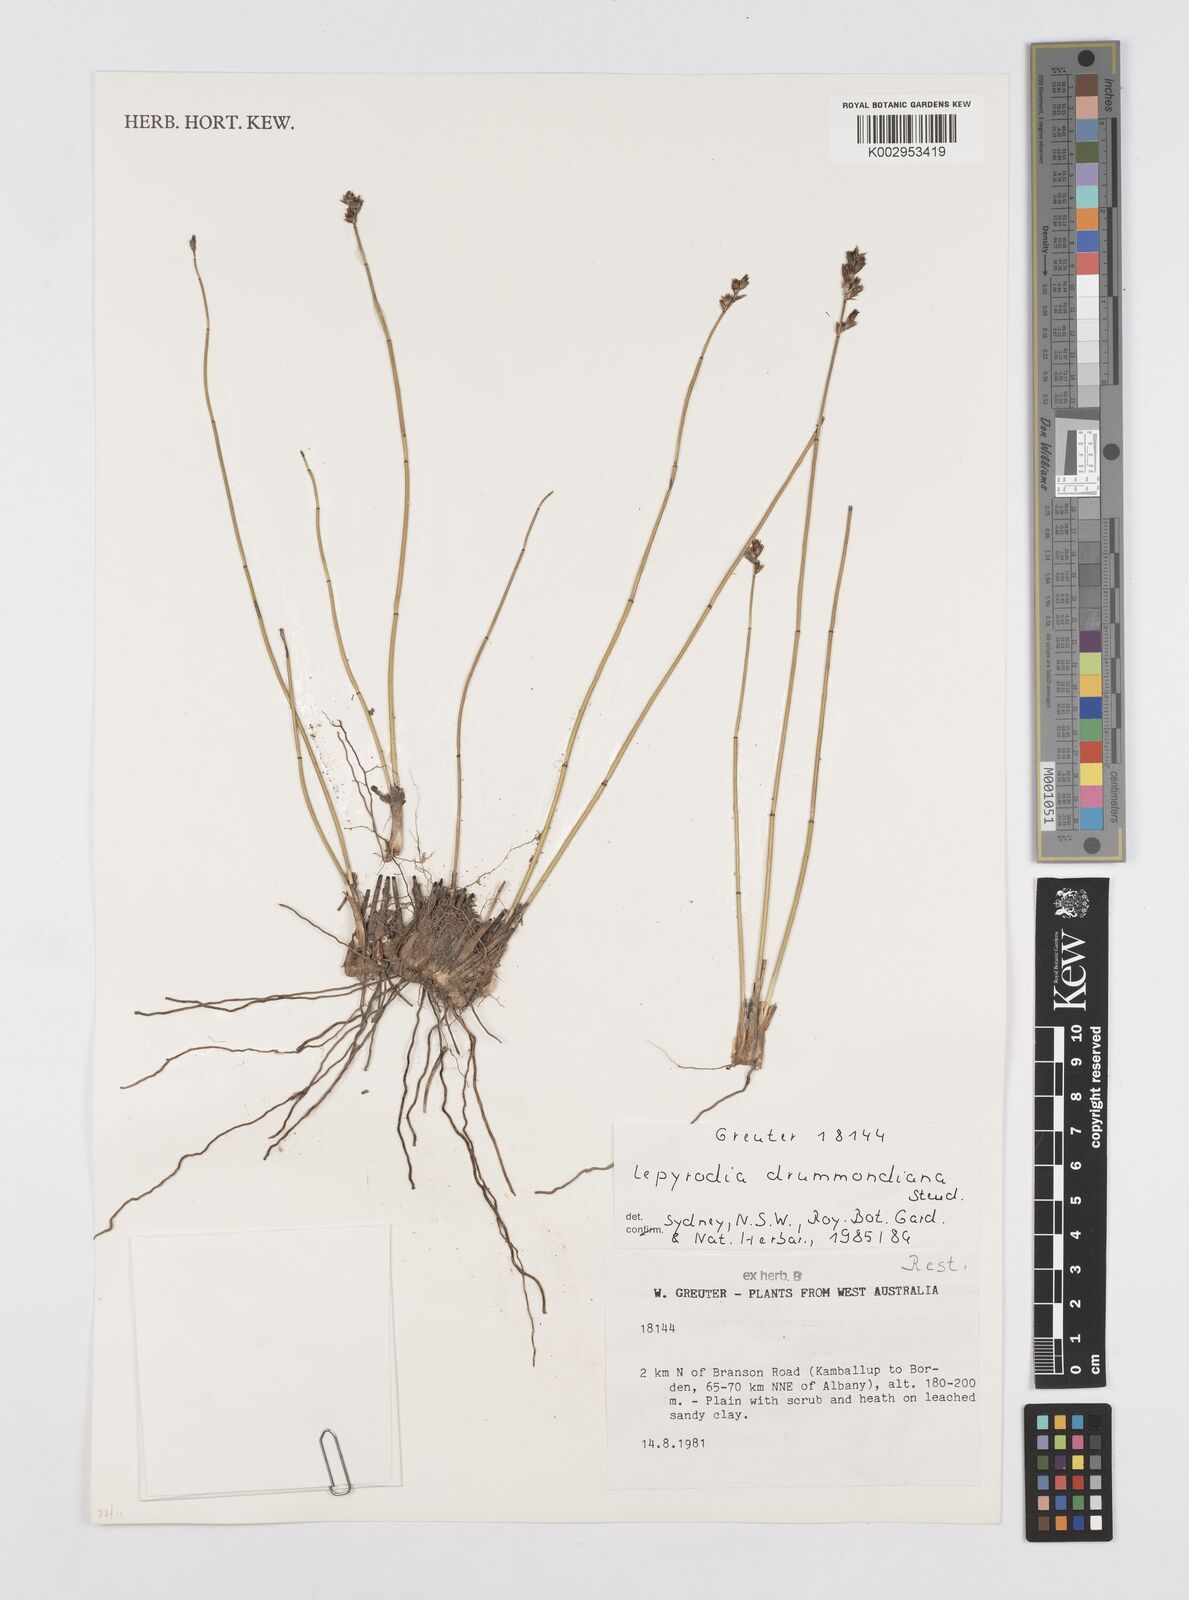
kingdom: Plantae
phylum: Tracheophyta
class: Liliopsida
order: Poales
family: Restionaceae
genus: Lepyrodia
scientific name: Lepyrodia drummondiana
